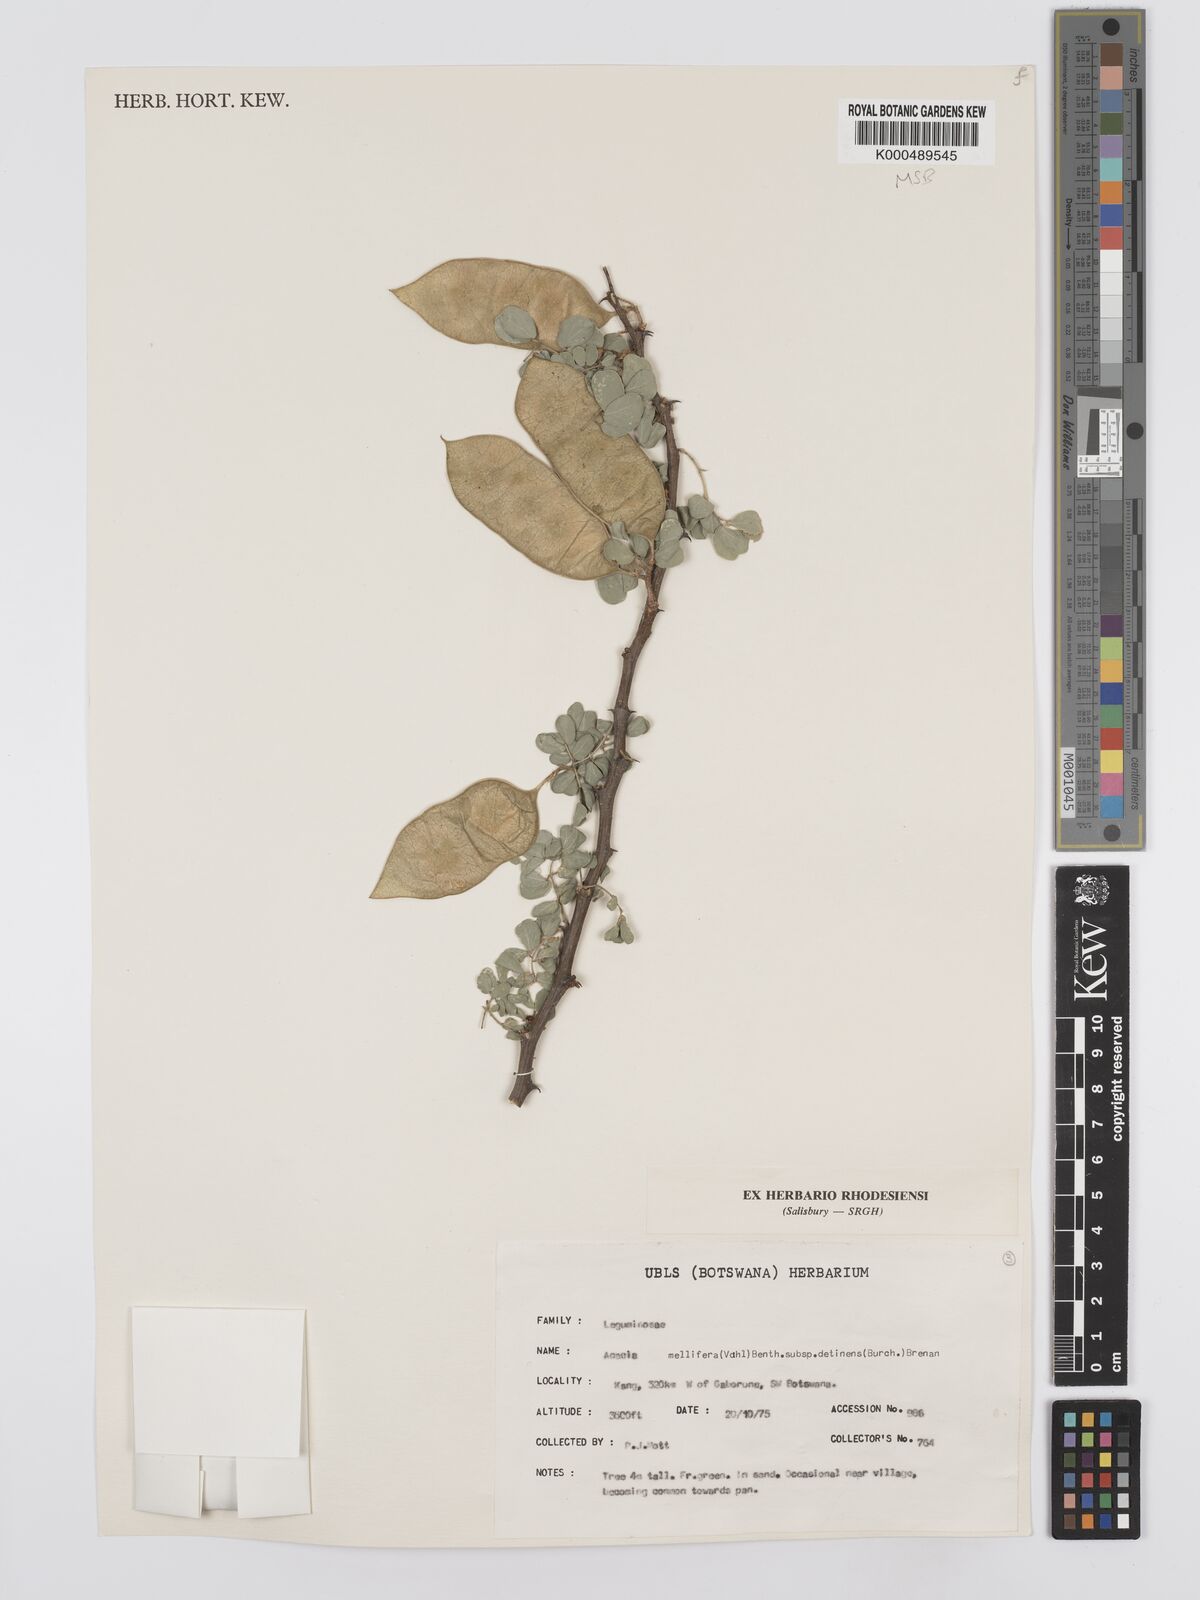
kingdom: Plantae
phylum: Tracheophyta
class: Magnoliopsida
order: Fabales
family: Fabaceae
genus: Senegalia
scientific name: Senegalia mellifera
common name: Hookthorn
